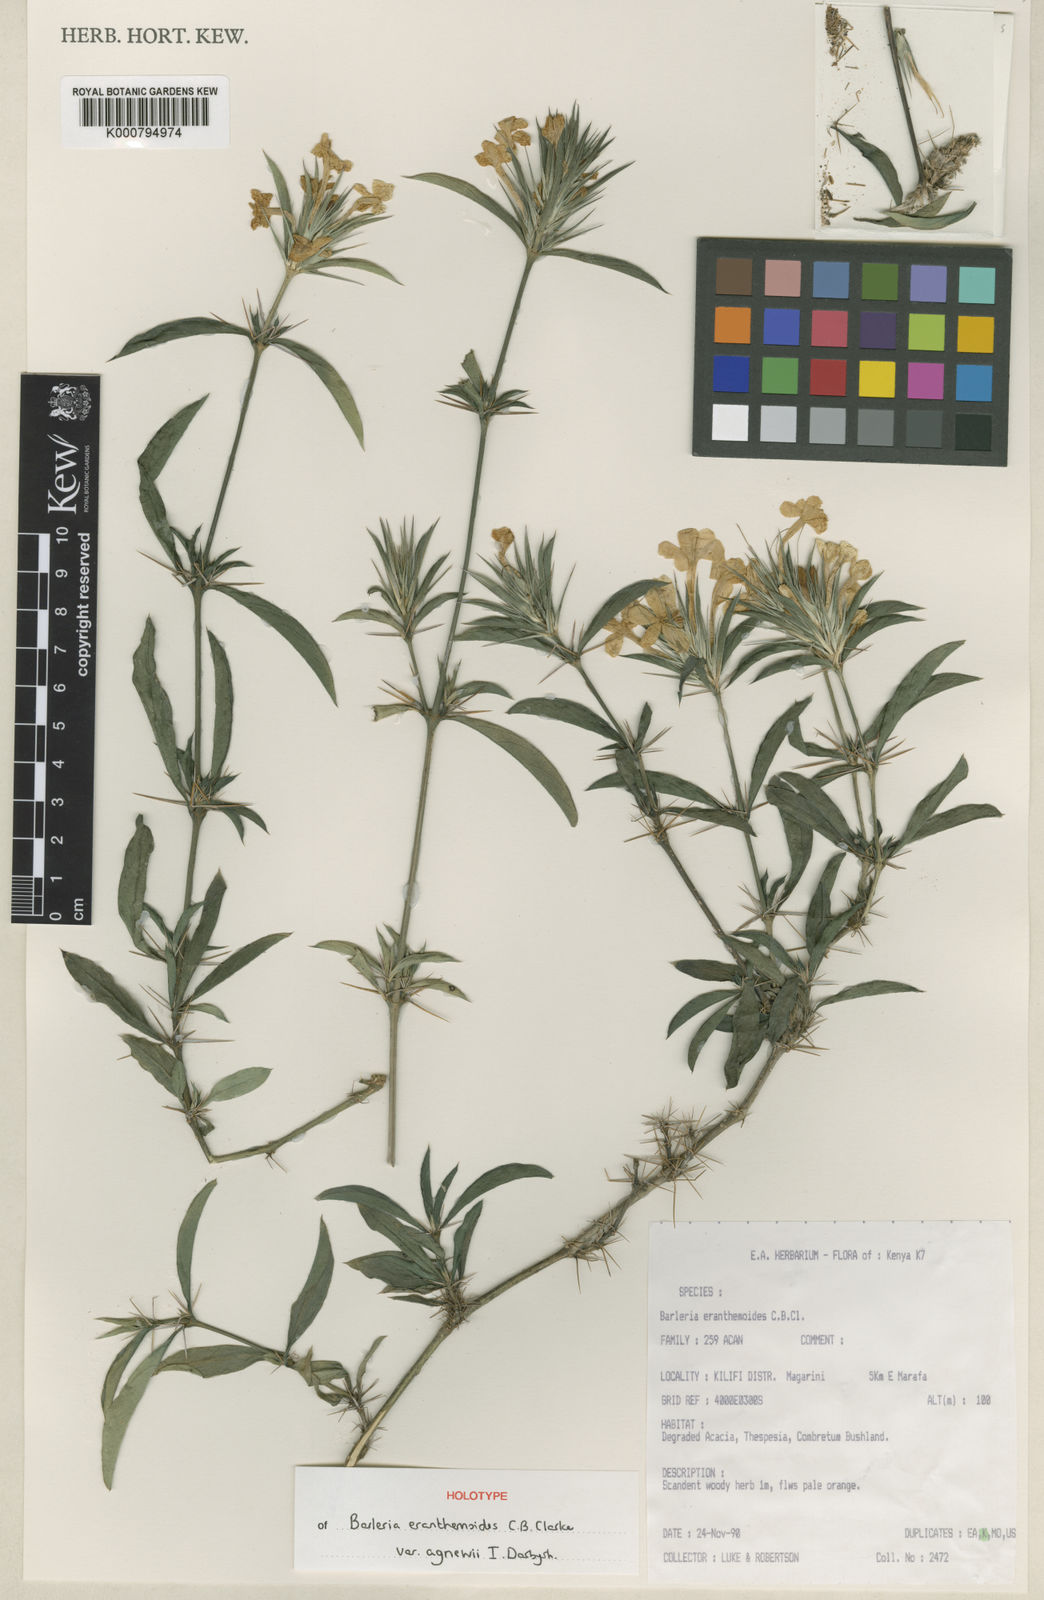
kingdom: Plantae
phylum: Tracheophyta
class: Magnoliopsida
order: Lamiales
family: Acanthaceae
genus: Barleria
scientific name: Barleria eranthemoides
